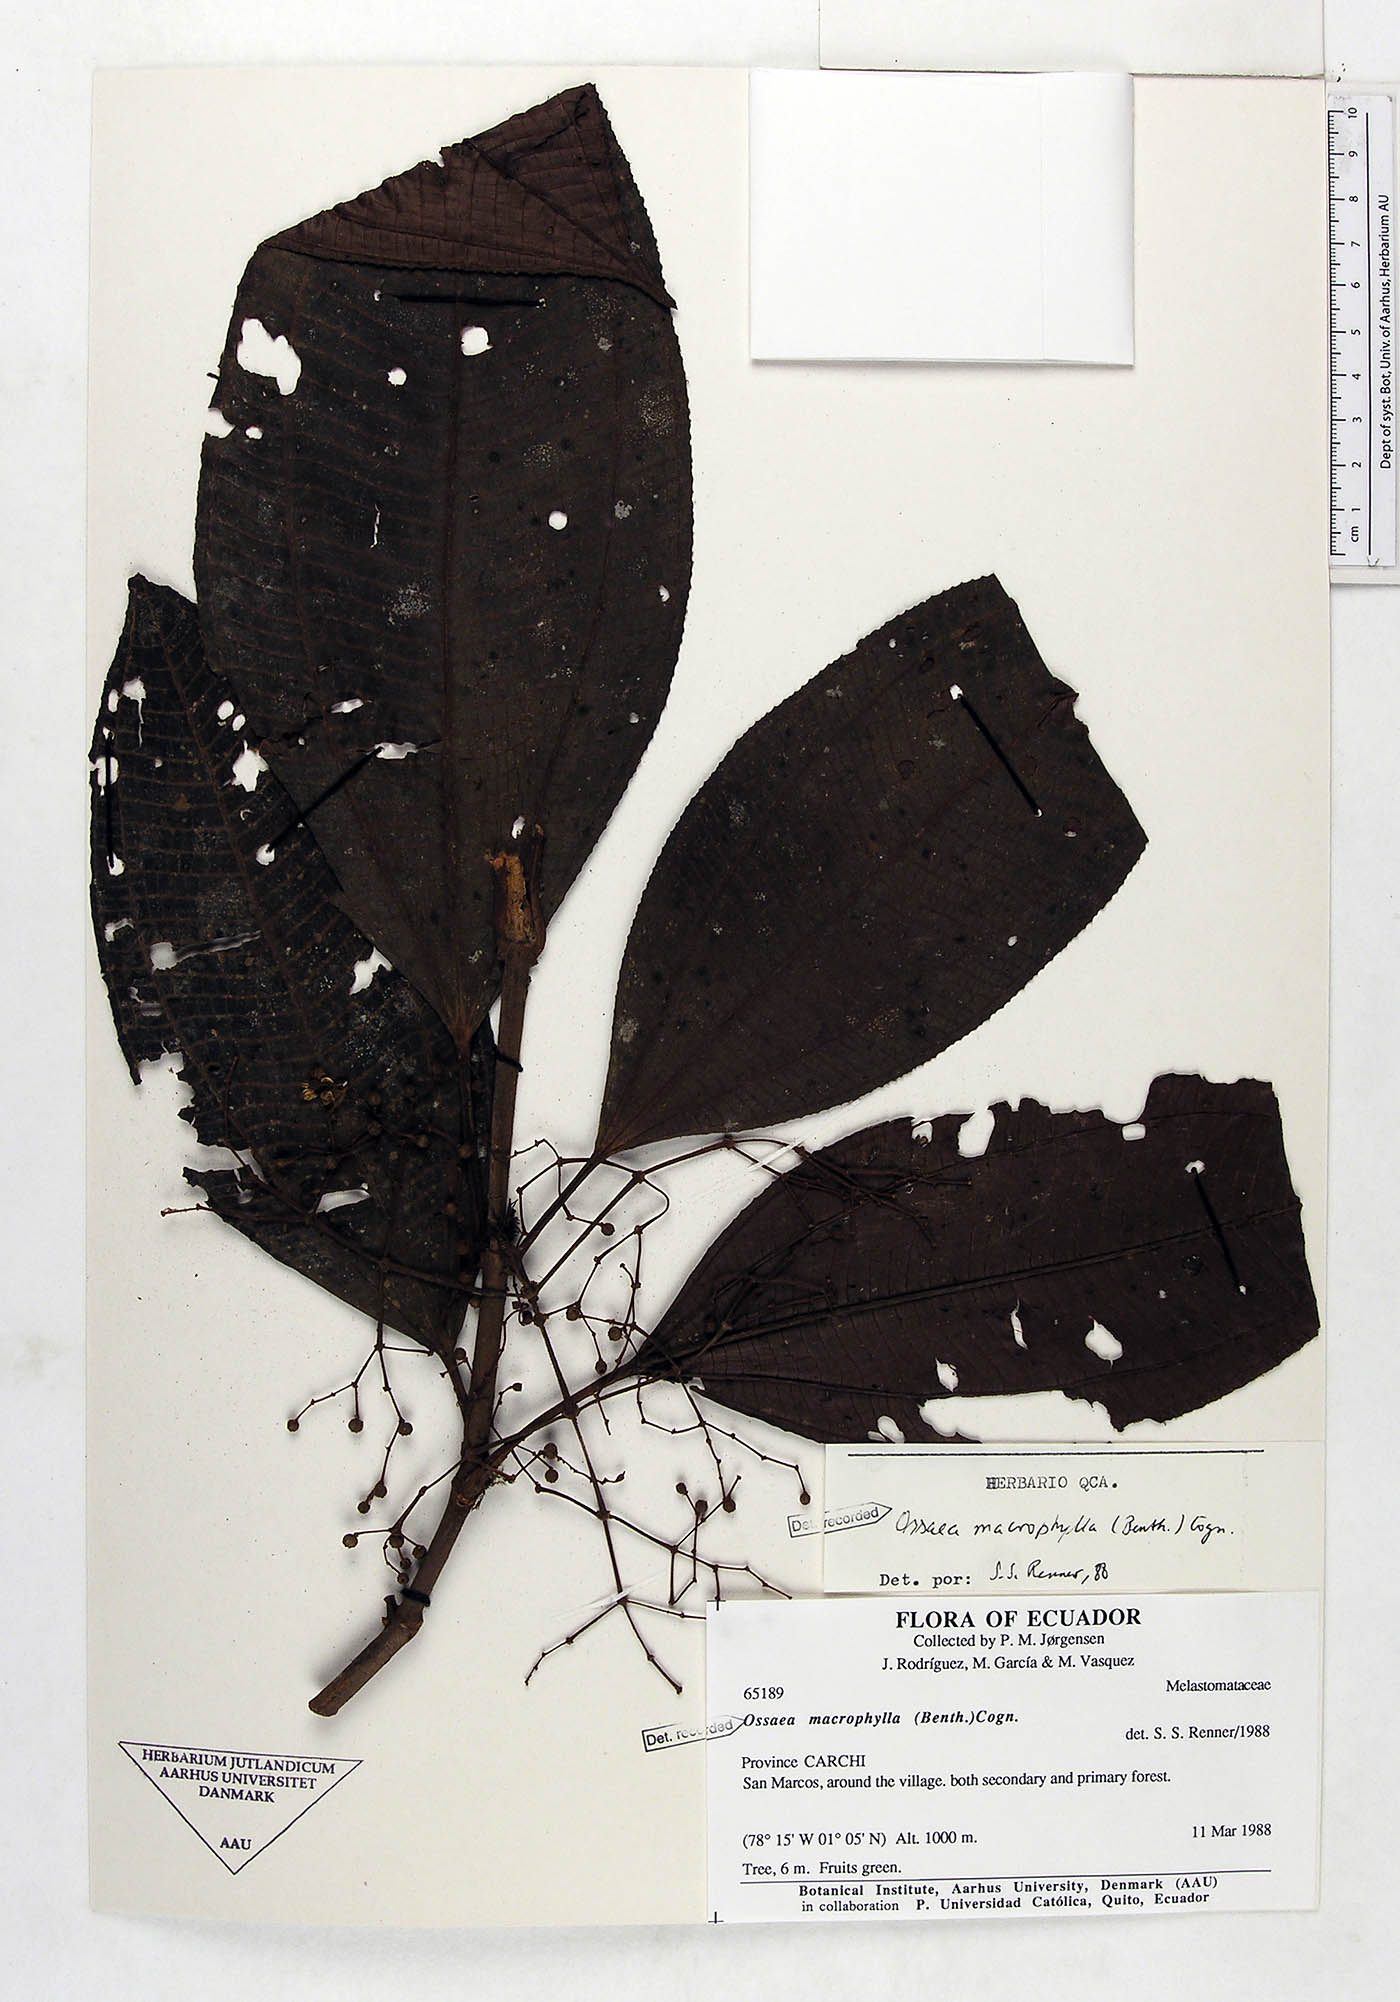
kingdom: Plantae
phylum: Tracheophyta
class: Magnoliopsida
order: Myrtales
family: Melastomataceae
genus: Miconia
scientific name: Miconia magnifolia
